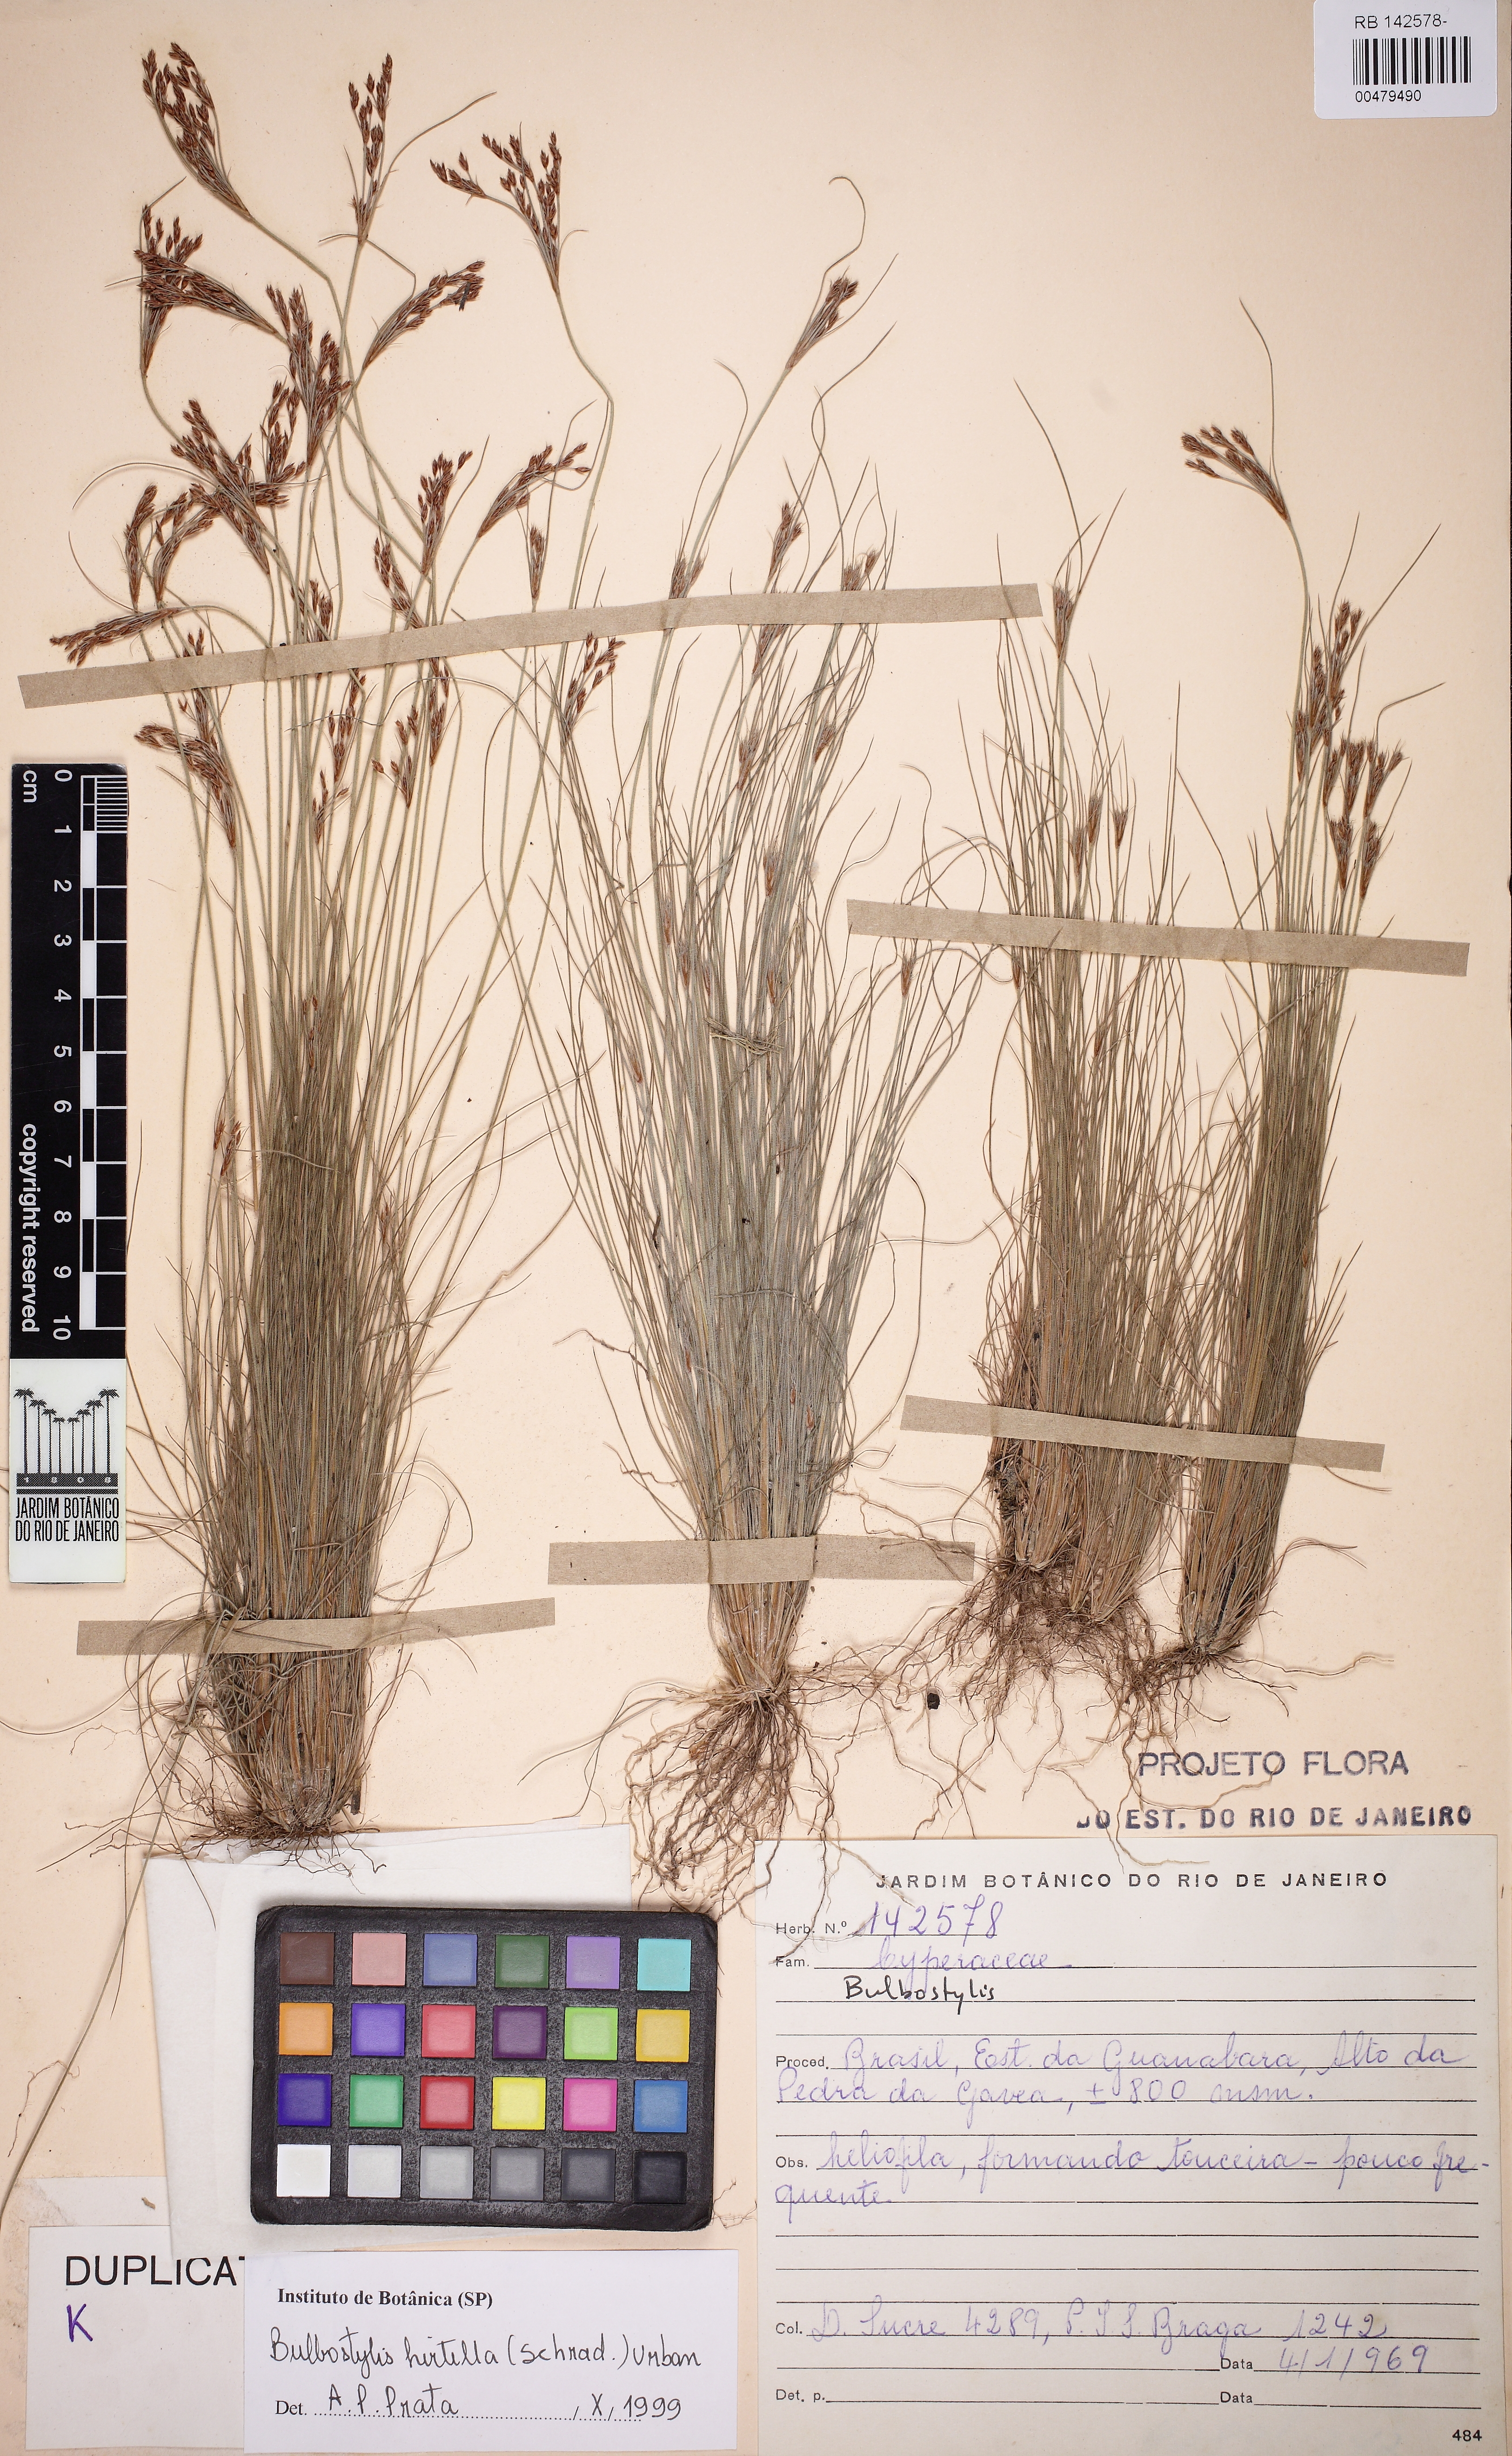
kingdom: Plantae
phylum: Tracheophyta
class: Liliopsida
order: Poales
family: Cyperaceae
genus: Bulbostylis
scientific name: Bulbostylis juncoides
